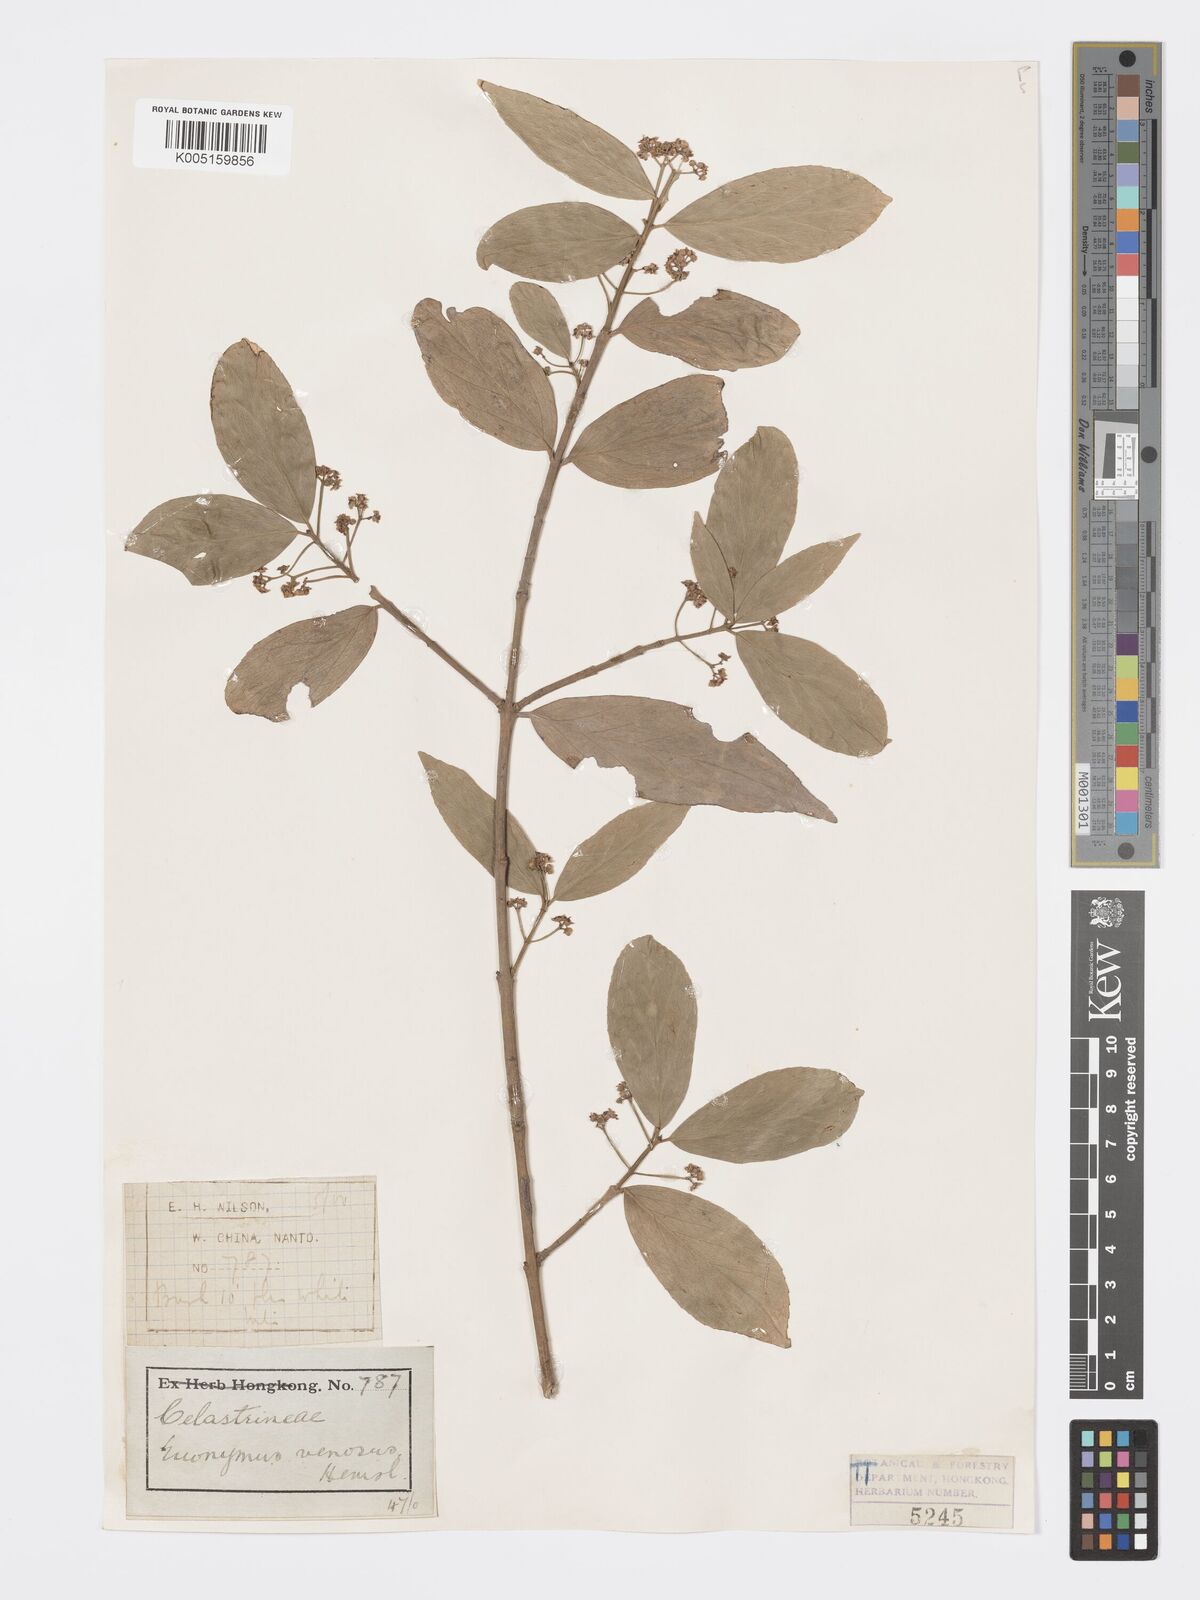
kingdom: Plantae
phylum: Tracheophyta
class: Magnoliopsida
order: Celastrales
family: Celastraceae
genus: Euonymus
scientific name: Euonymus venosus
